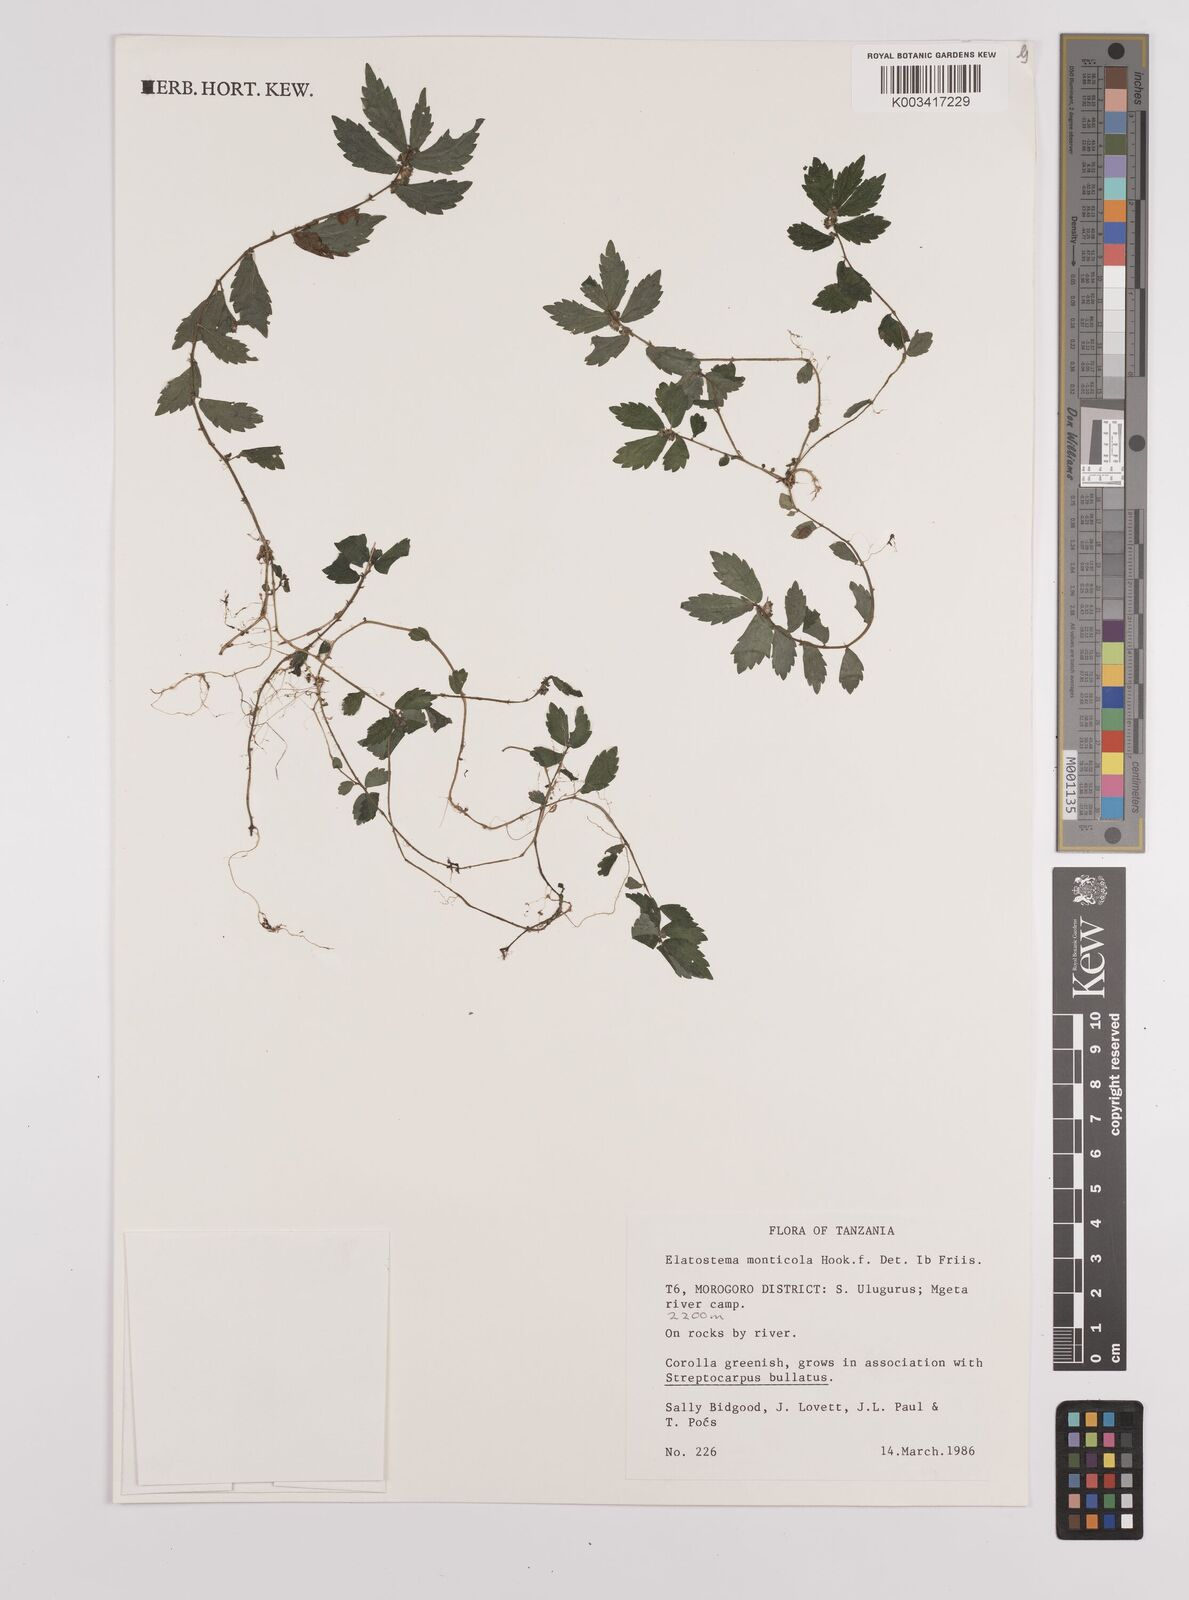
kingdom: Plantae
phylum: Tracheophyta
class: Magnoliopsida
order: Rosales
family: Urticaceae
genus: Elatostema
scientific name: Elatostema monticola
